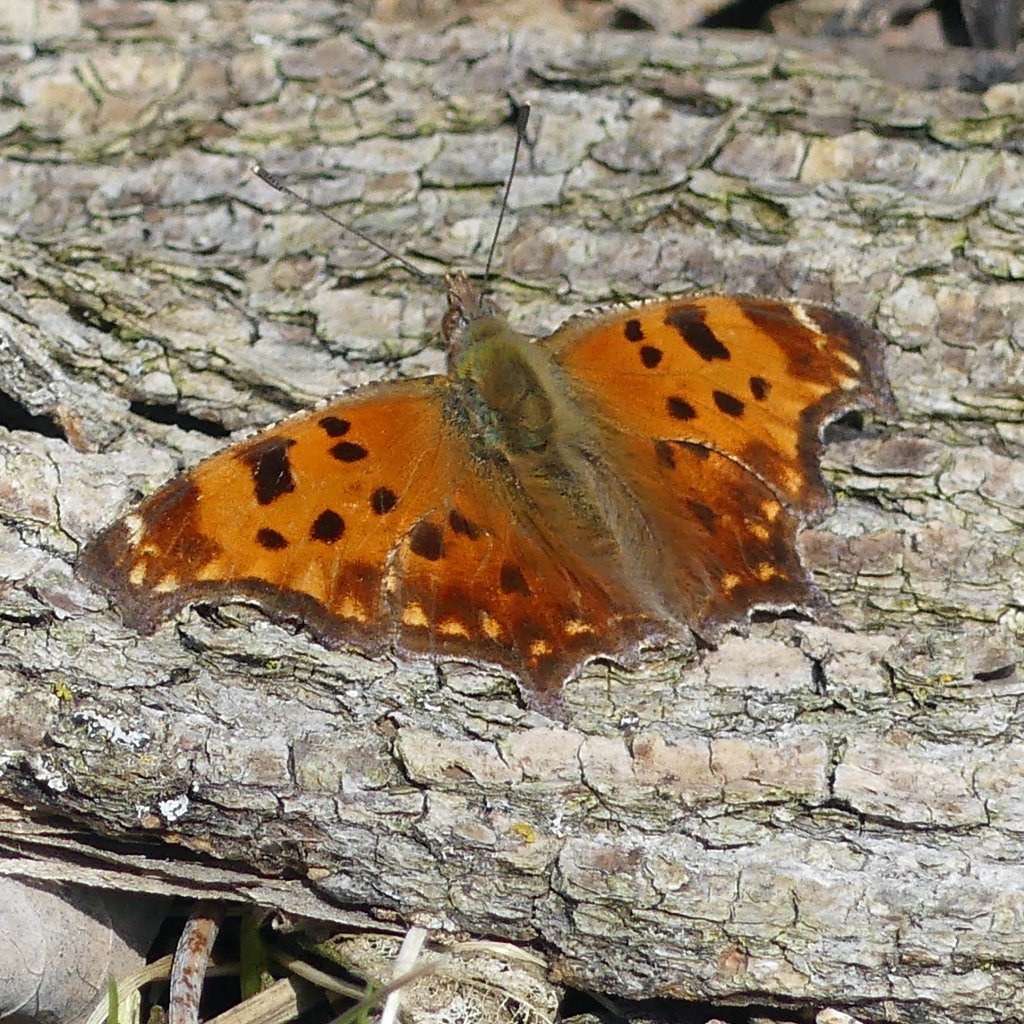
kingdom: Animalia
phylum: Arthropoda
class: Insecta
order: Lepidoptera
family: Nymphalidae
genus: Polygonia
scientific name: Polygonia comma
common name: Eastern Comma
